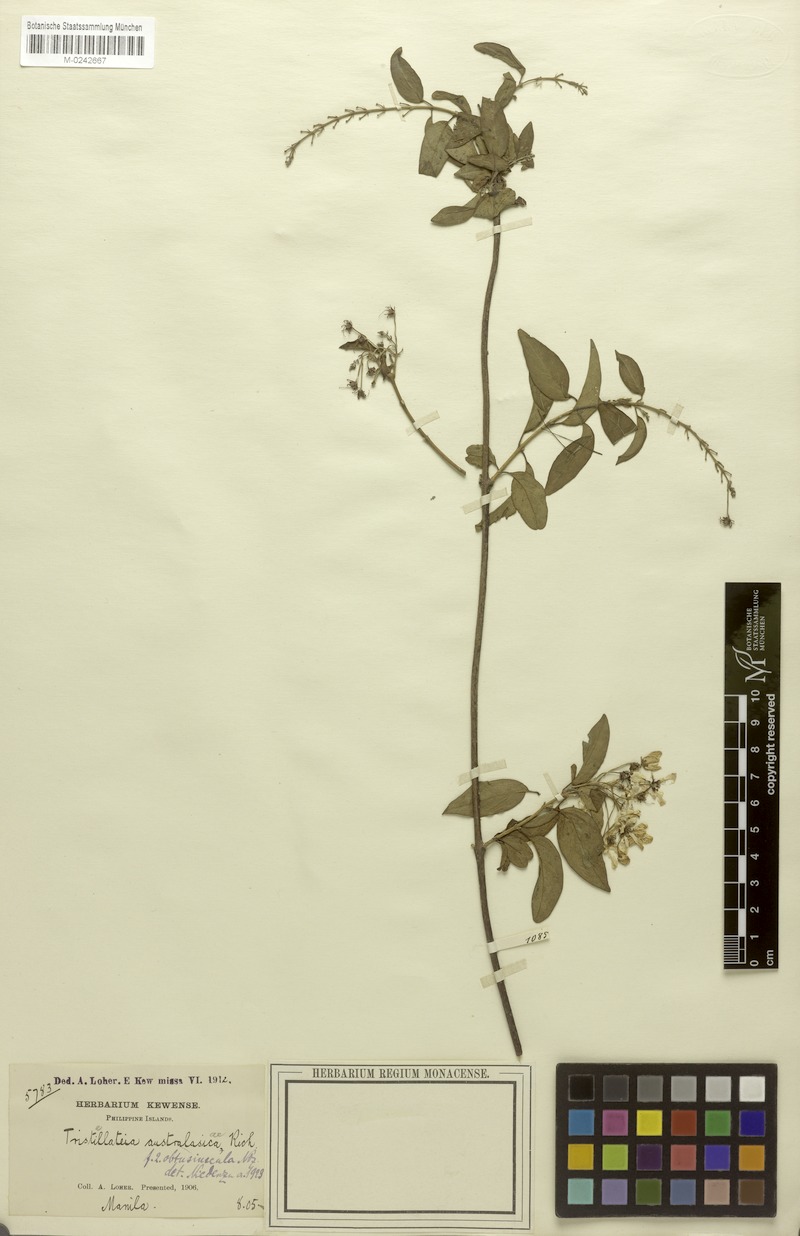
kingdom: Plantae
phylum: Tracheophyta
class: Magnoliopsida
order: Malpighiales
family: Malpighiaceae
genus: Tristellateia
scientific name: Tristellateia australasiae
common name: Australian goldvine
